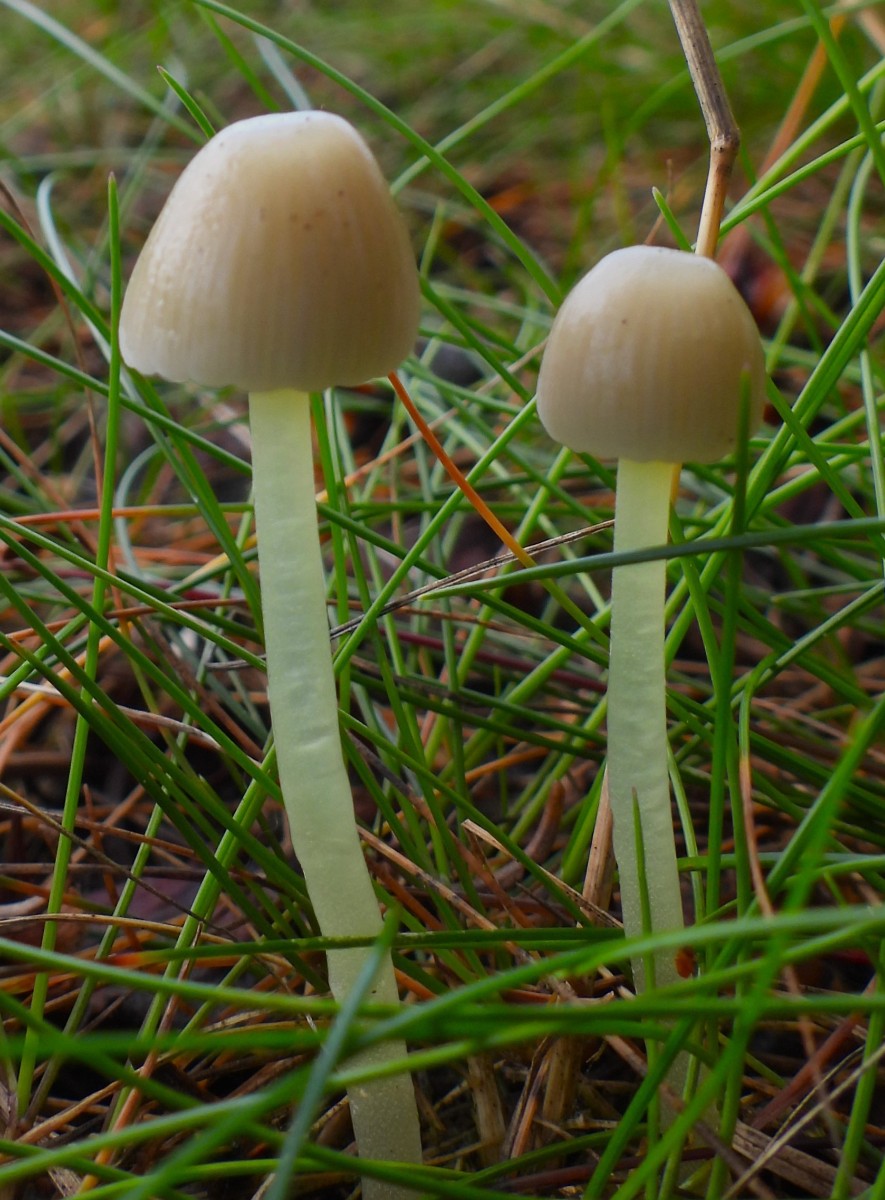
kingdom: Fungi
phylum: Basidiomycota
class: Agaricomycetes
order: Agaricales
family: Mycenaceae
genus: Mycena
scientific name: Mycena epipterygia
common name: gulstokket huesvamp
